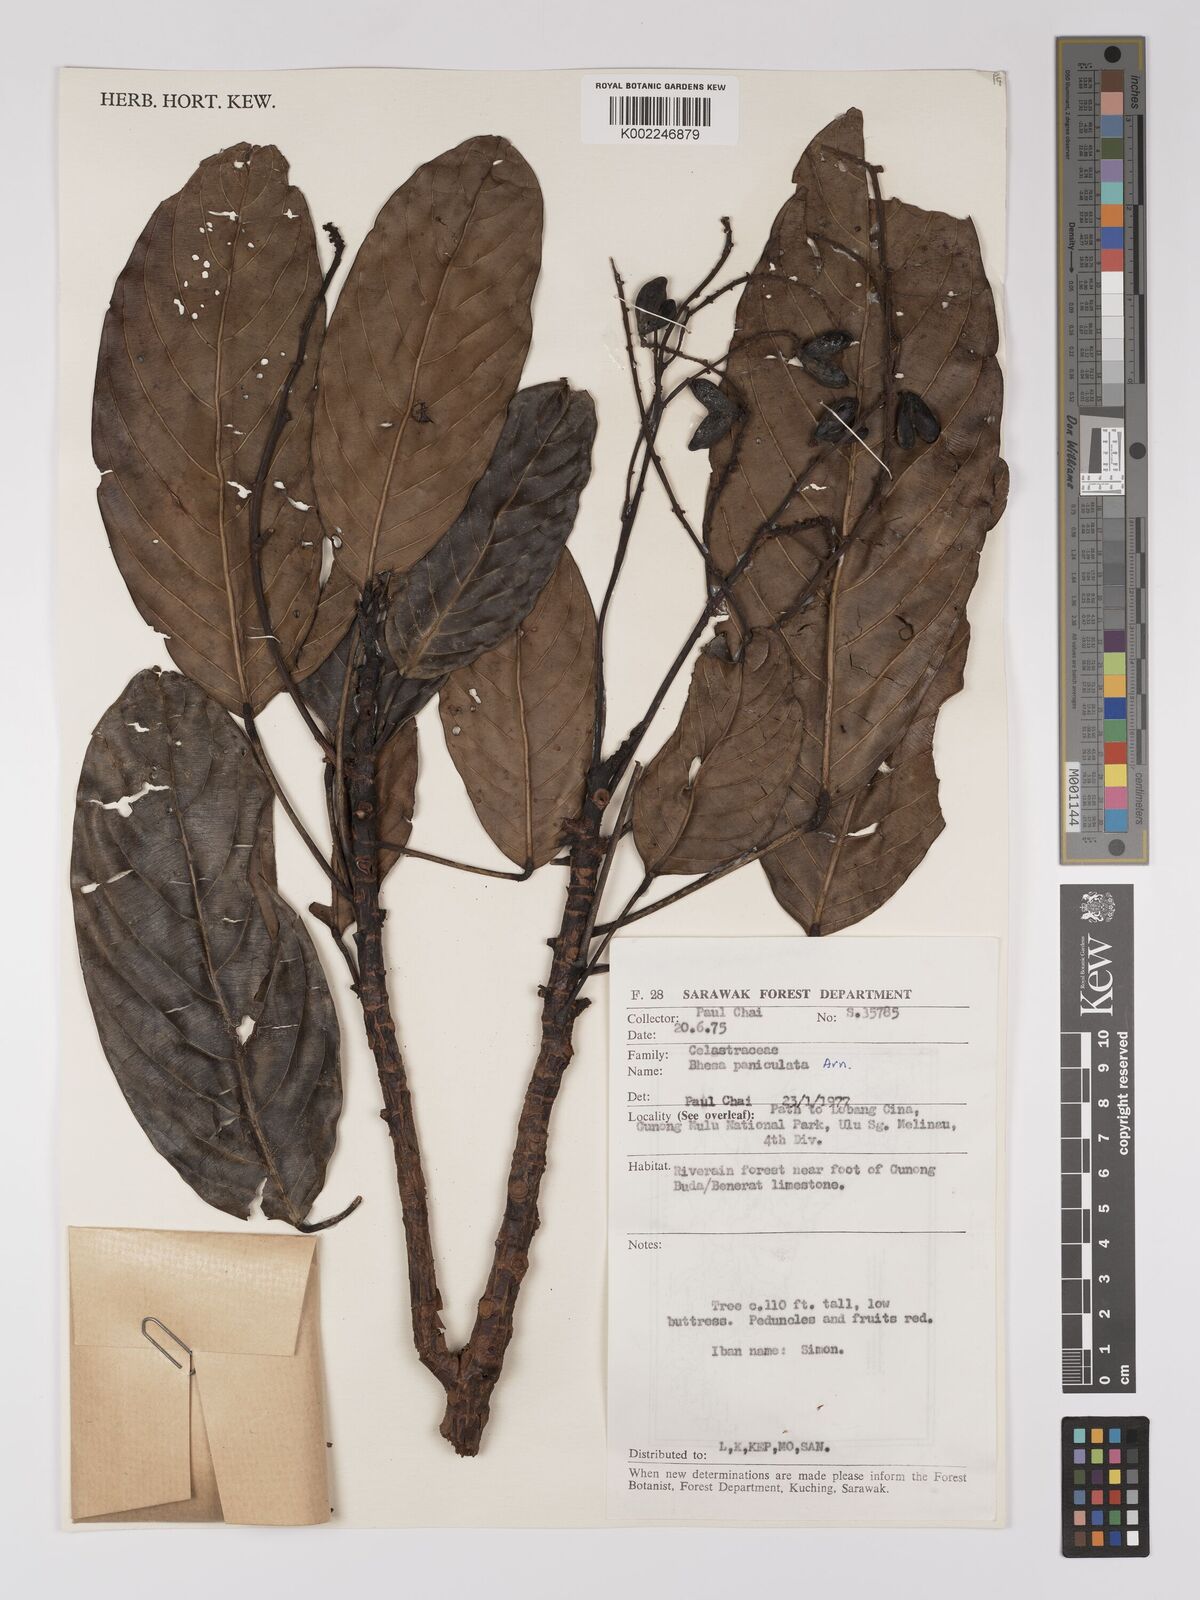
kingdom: Plantae
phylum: Tracheophyta
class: Magnoliopsida
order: Malpighiales
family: Centroplacaceae
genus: Bhesa
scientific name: Bhesa paniculata
